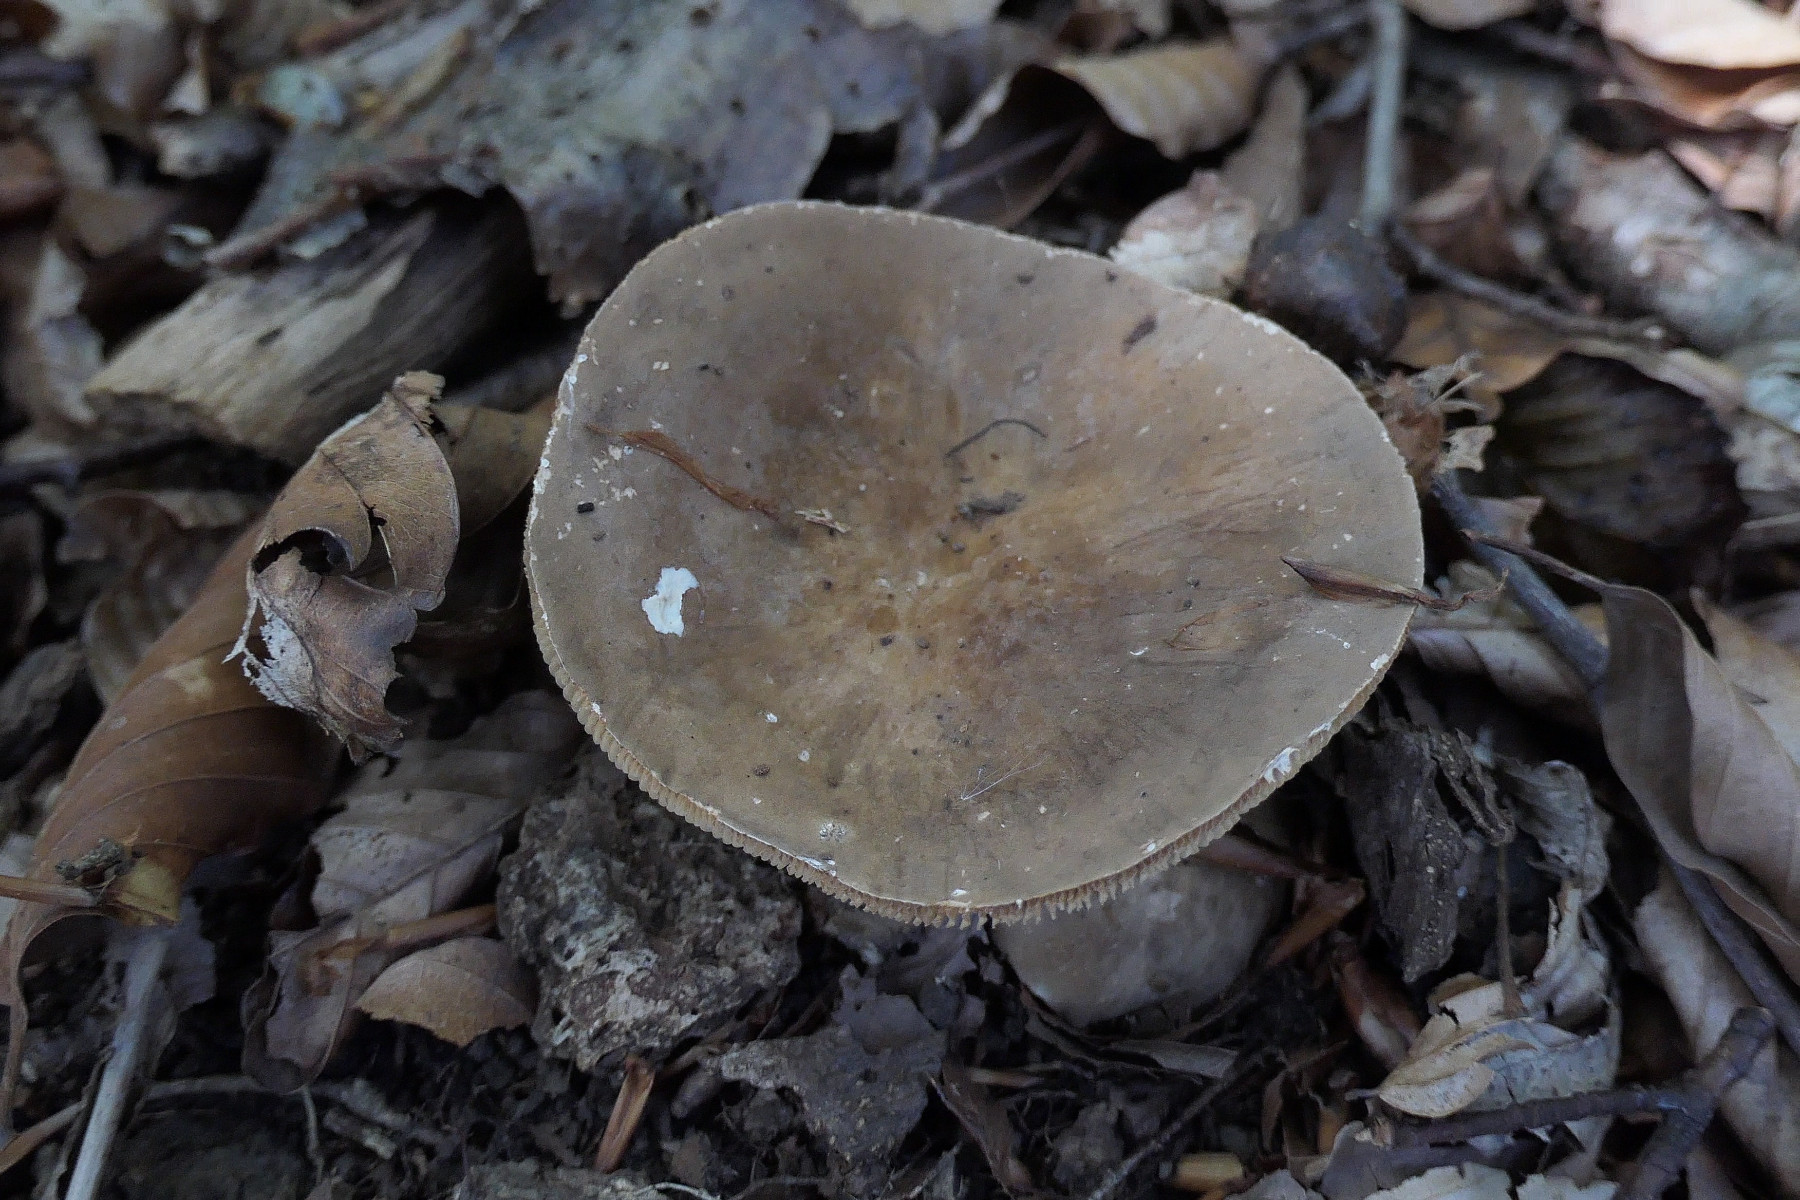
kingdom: Fungi
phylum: Basidiomycota
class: Agaricomycetes
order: Russulales
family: Russulaceae
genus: Lactarius
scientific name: Lactarius pterosporus
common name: vingesporet mælkehat
